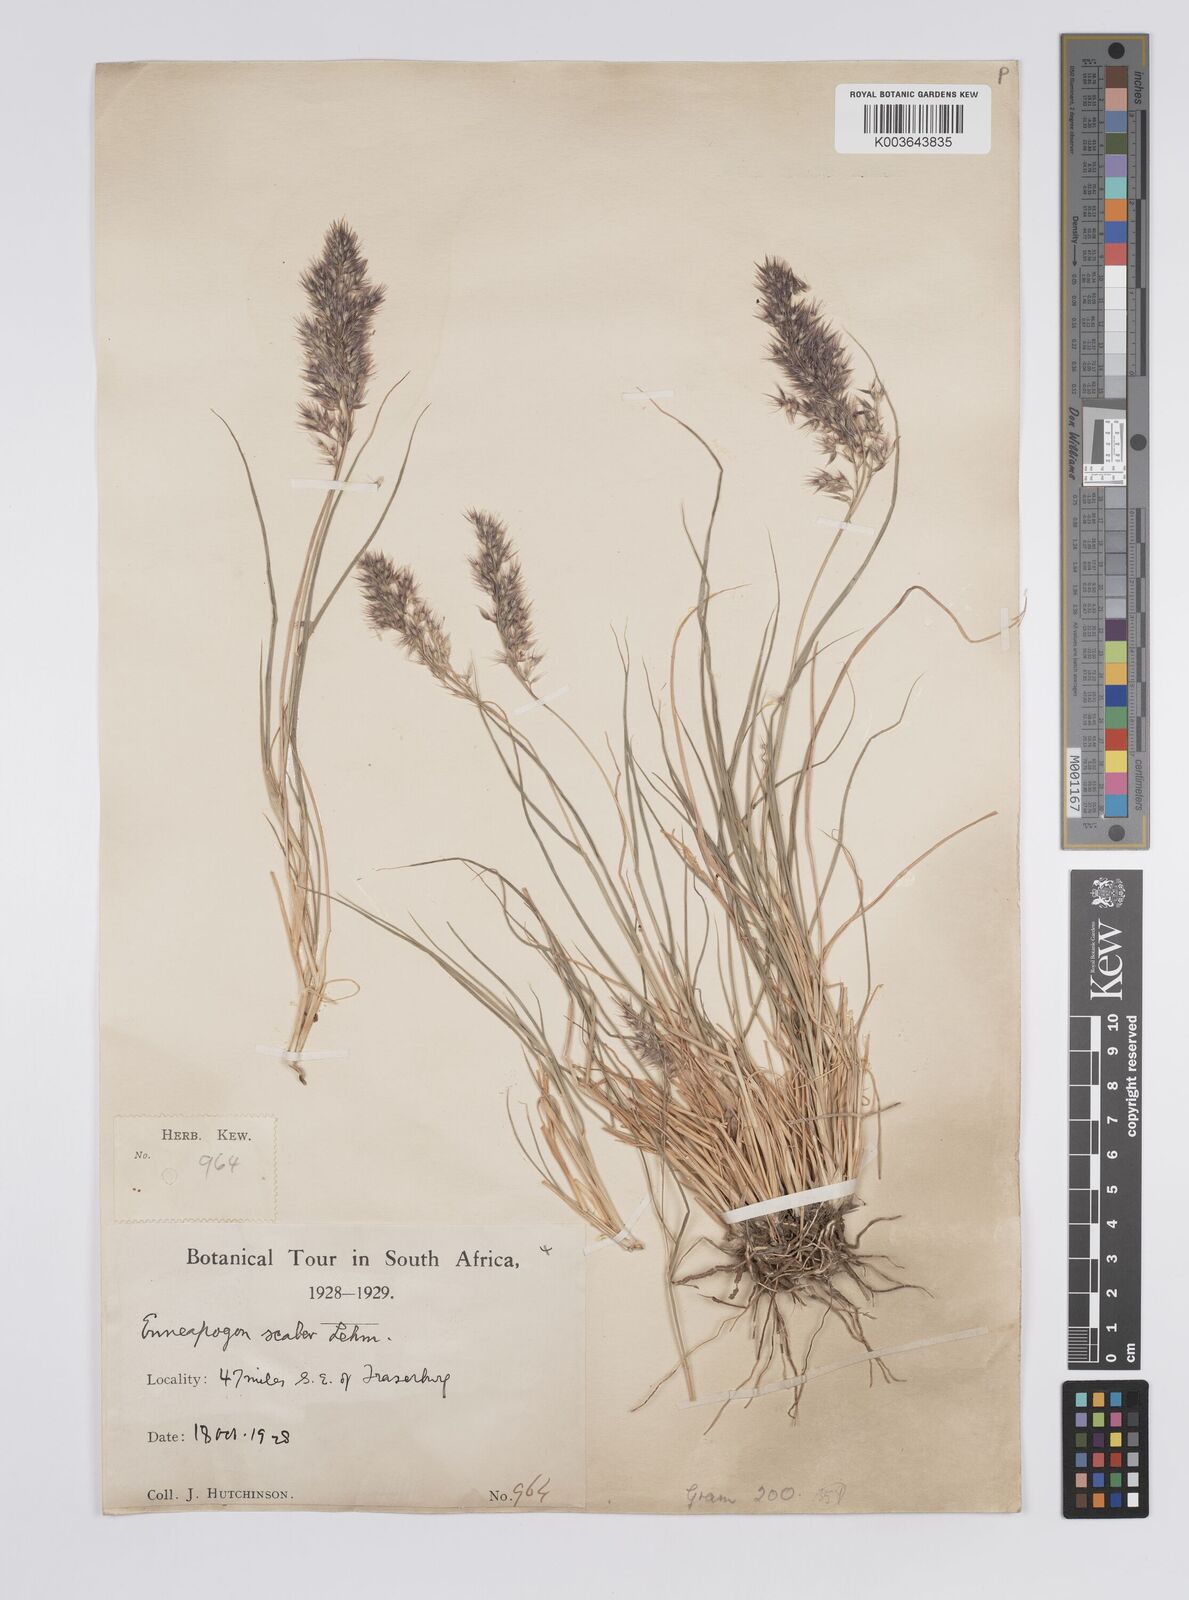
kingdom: Plantae
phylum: Tracheophyta
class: Liliopsida
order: Poales
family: Poaceae
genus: Enneapogon
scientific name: Enneapogon scaber
